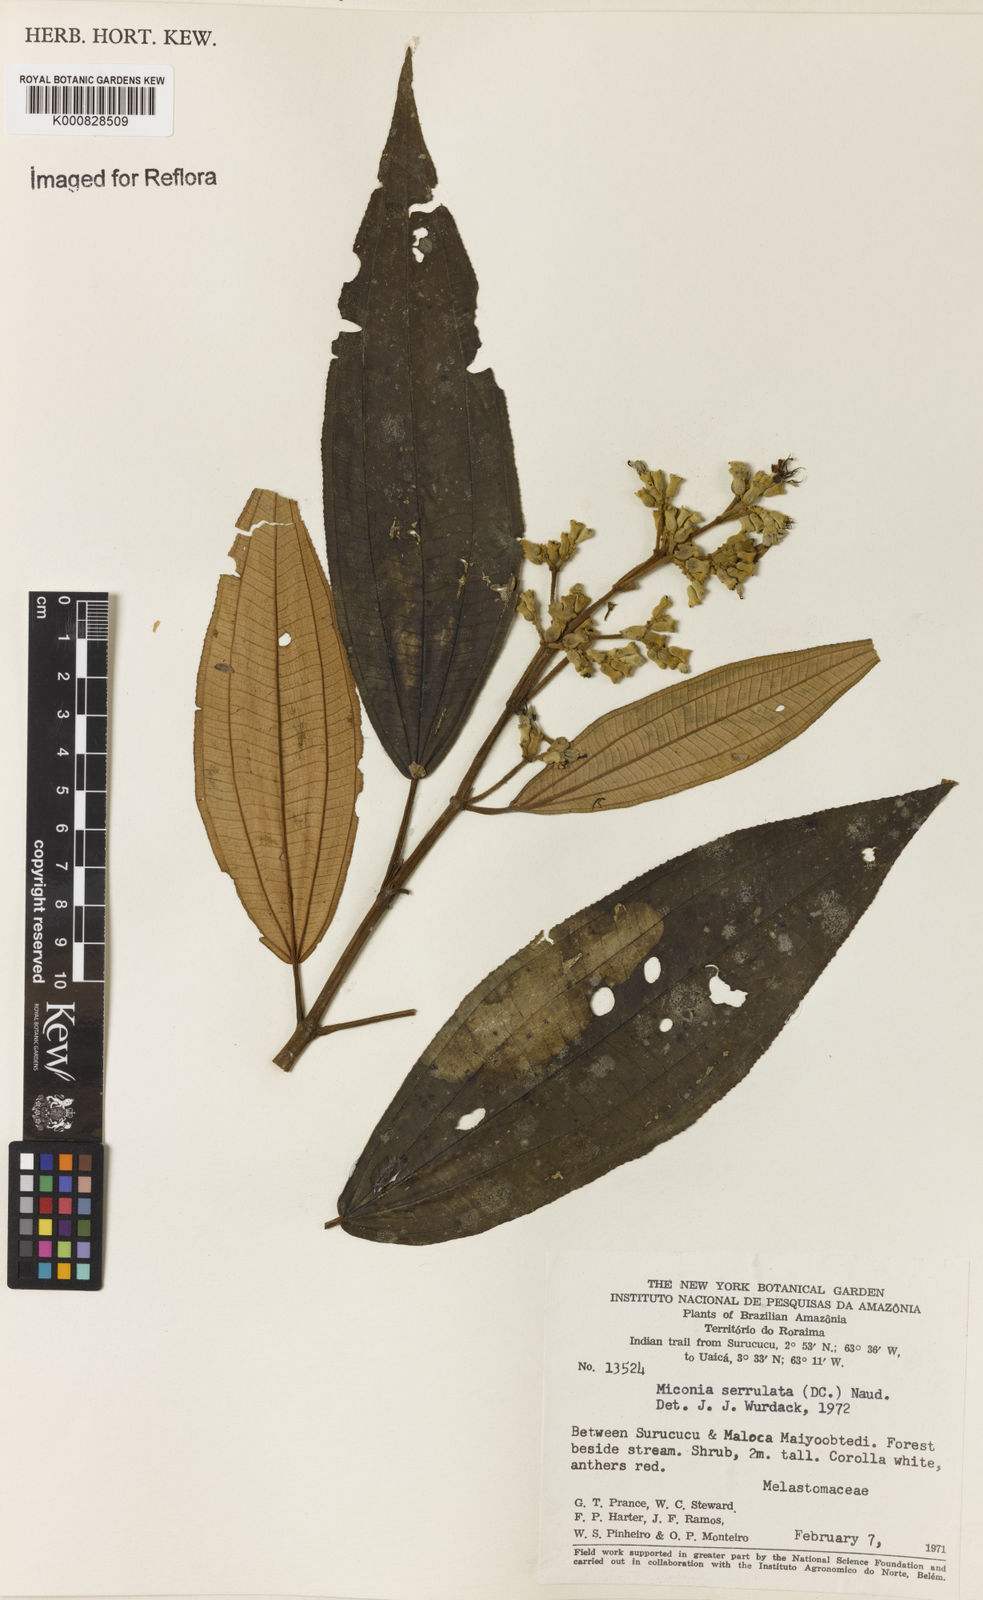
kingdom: Plantae
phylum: Tracheophyta
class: Magnoliopsida
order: Myrtales
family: Melastomataceae
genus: Miconia
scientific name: Miconia serrulata
